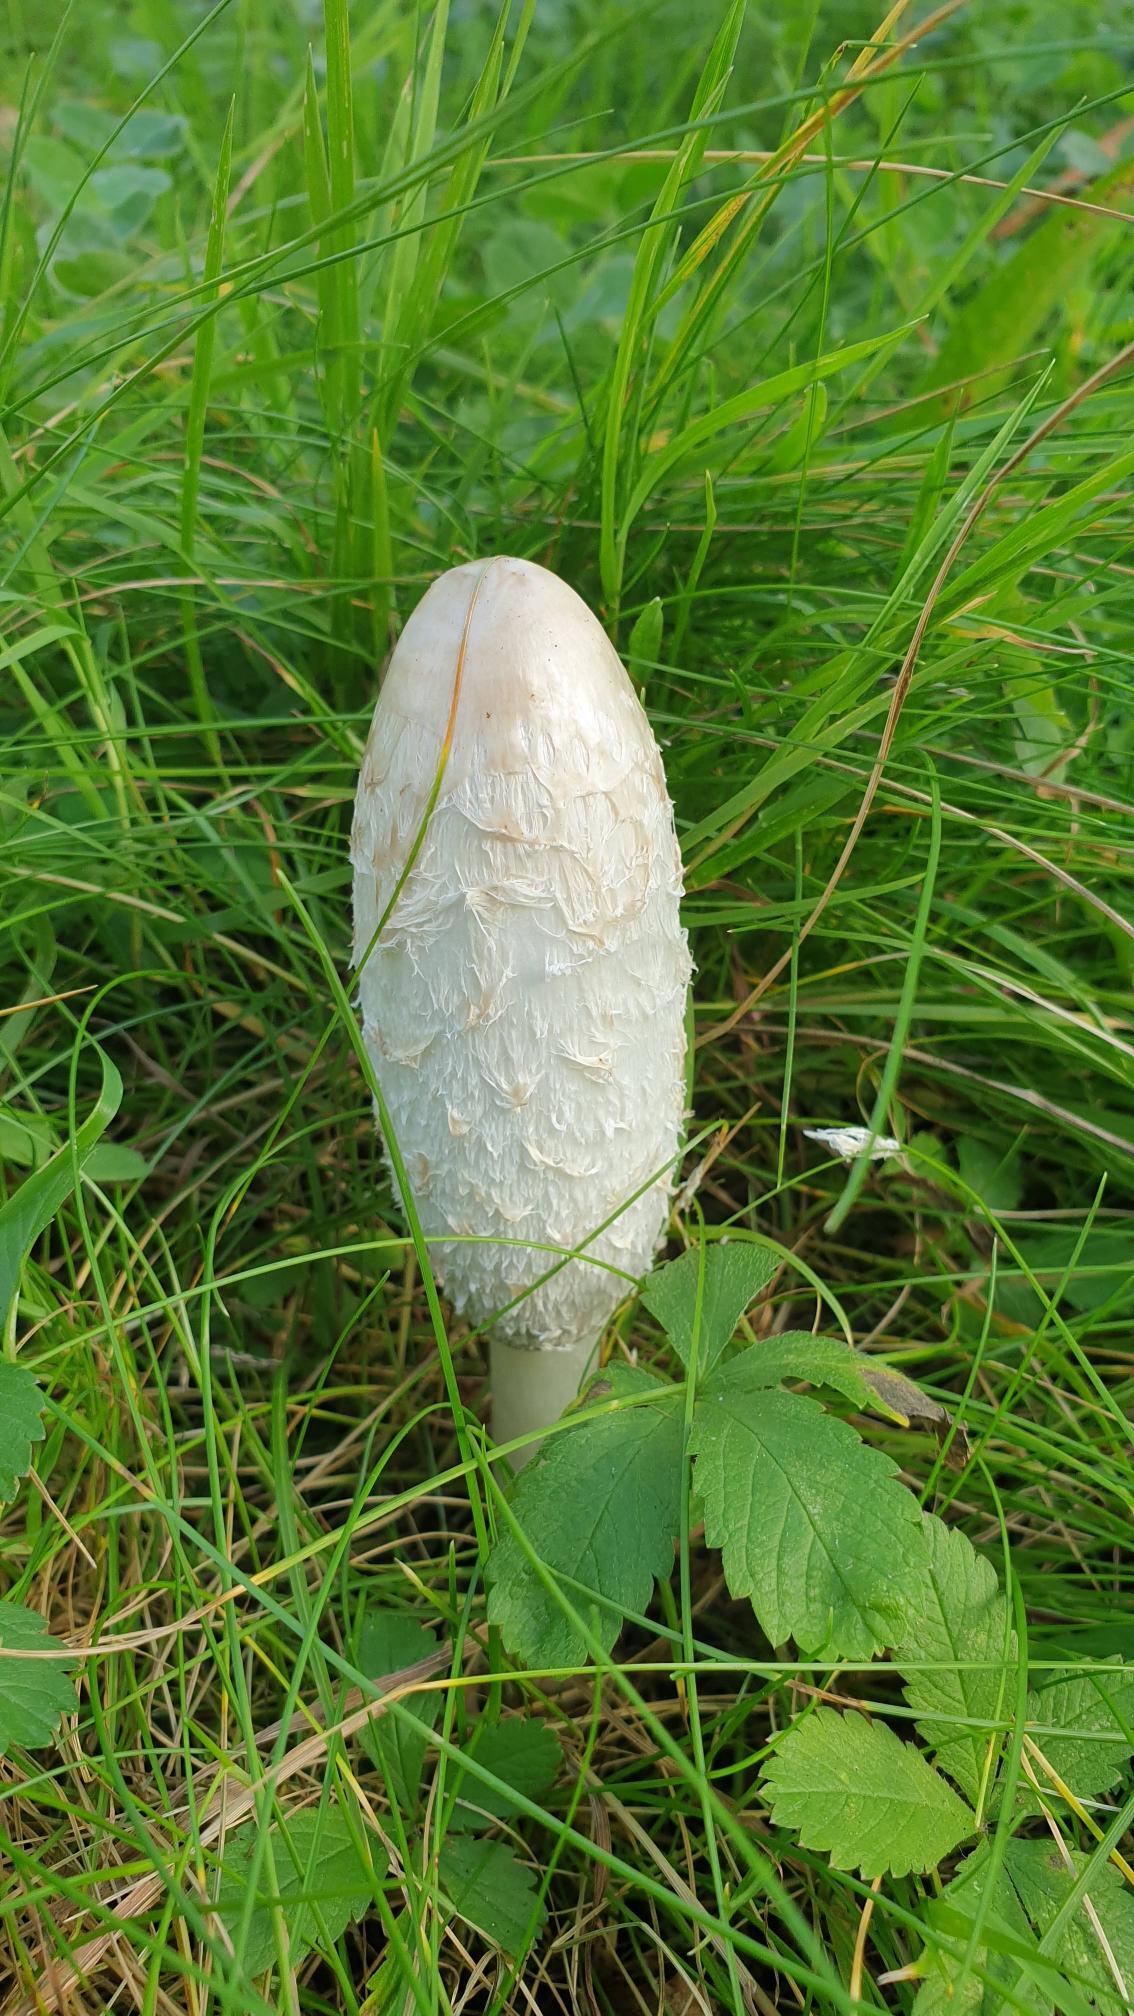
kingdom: Fungi
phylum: Basidiomycota
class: Agaricomycetes
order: Agaricales
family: Agaricaceae
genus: Coprinus
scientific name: Coprinus comatus
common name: Stor parykhat
